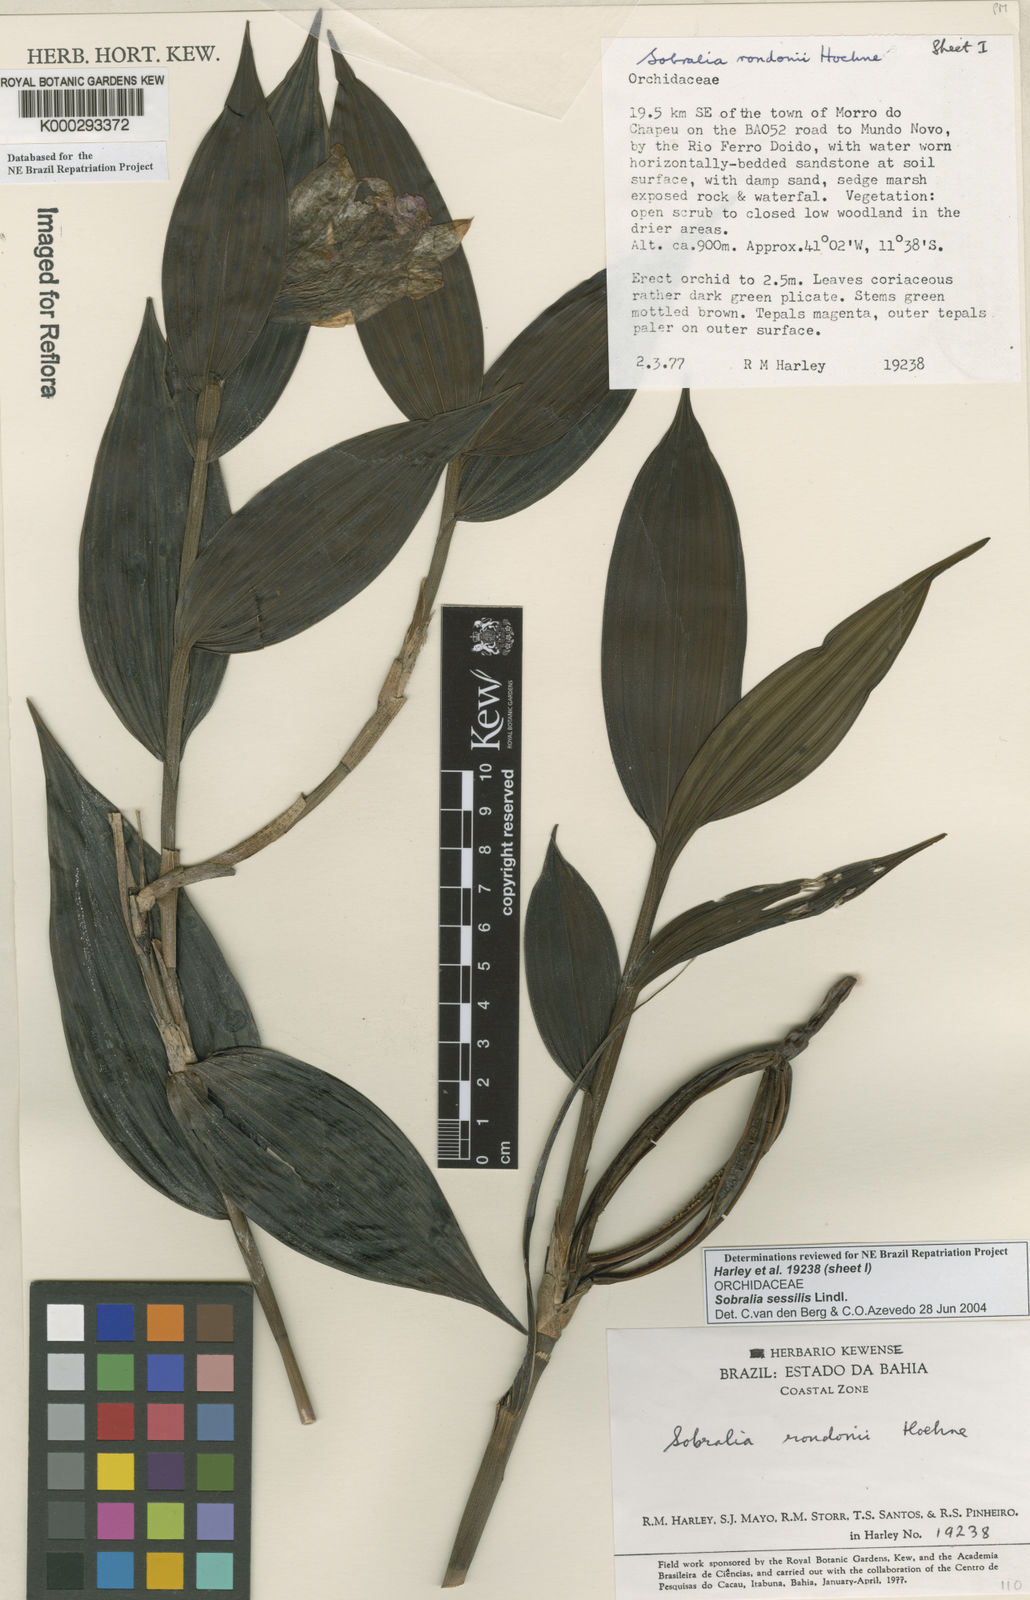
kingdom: Plantae
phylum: Tracheophyta
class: Liliopsida
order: Asparagales
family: Orchidaceae
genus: Sobralia
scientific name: Sobralia sessilis
